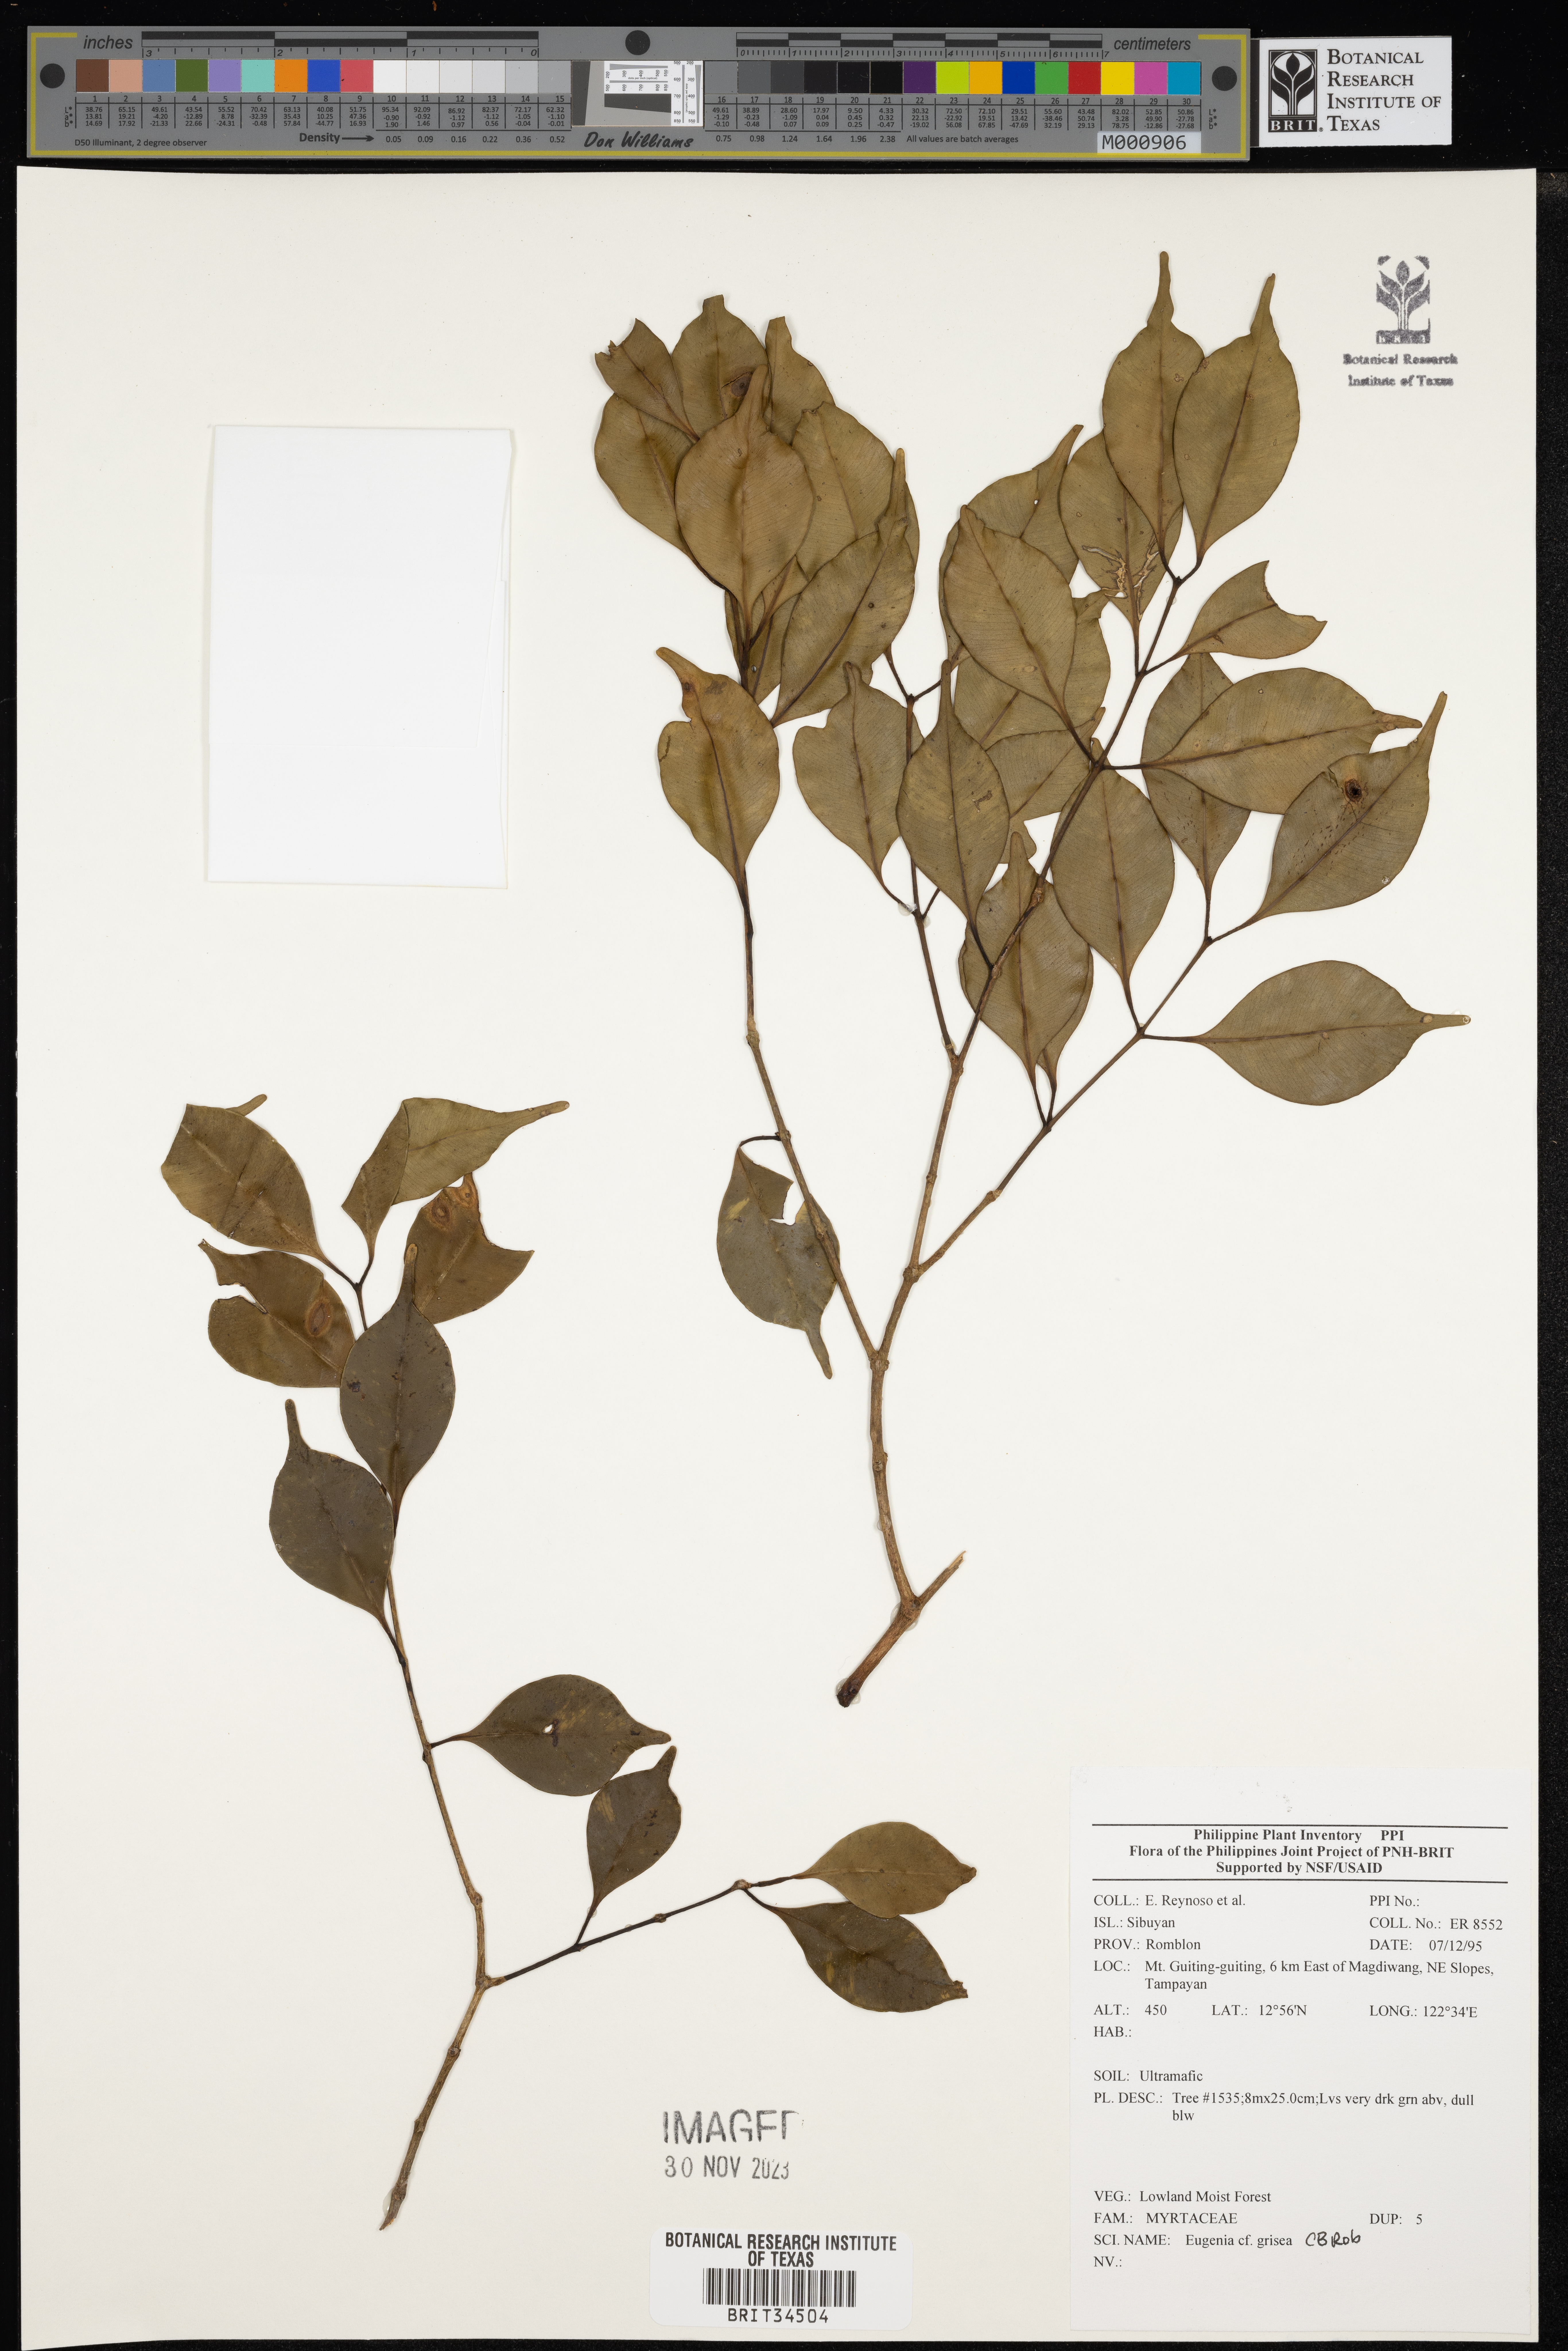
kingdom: Plantae
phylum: Tracheophyta
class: Magnoliopsida
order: Myrtales
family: Myrtaceae
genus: Eugenia
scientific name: Eugenia
